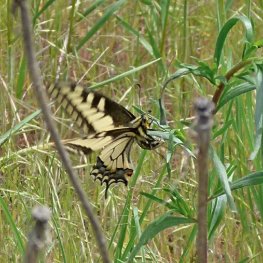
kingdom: Animalia
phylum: Arthropoda
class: Insecta
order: Lepidoptera
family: Papilionidae
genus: Papilio
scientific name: Papilio zelicaon
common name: Anise Swallowtail
